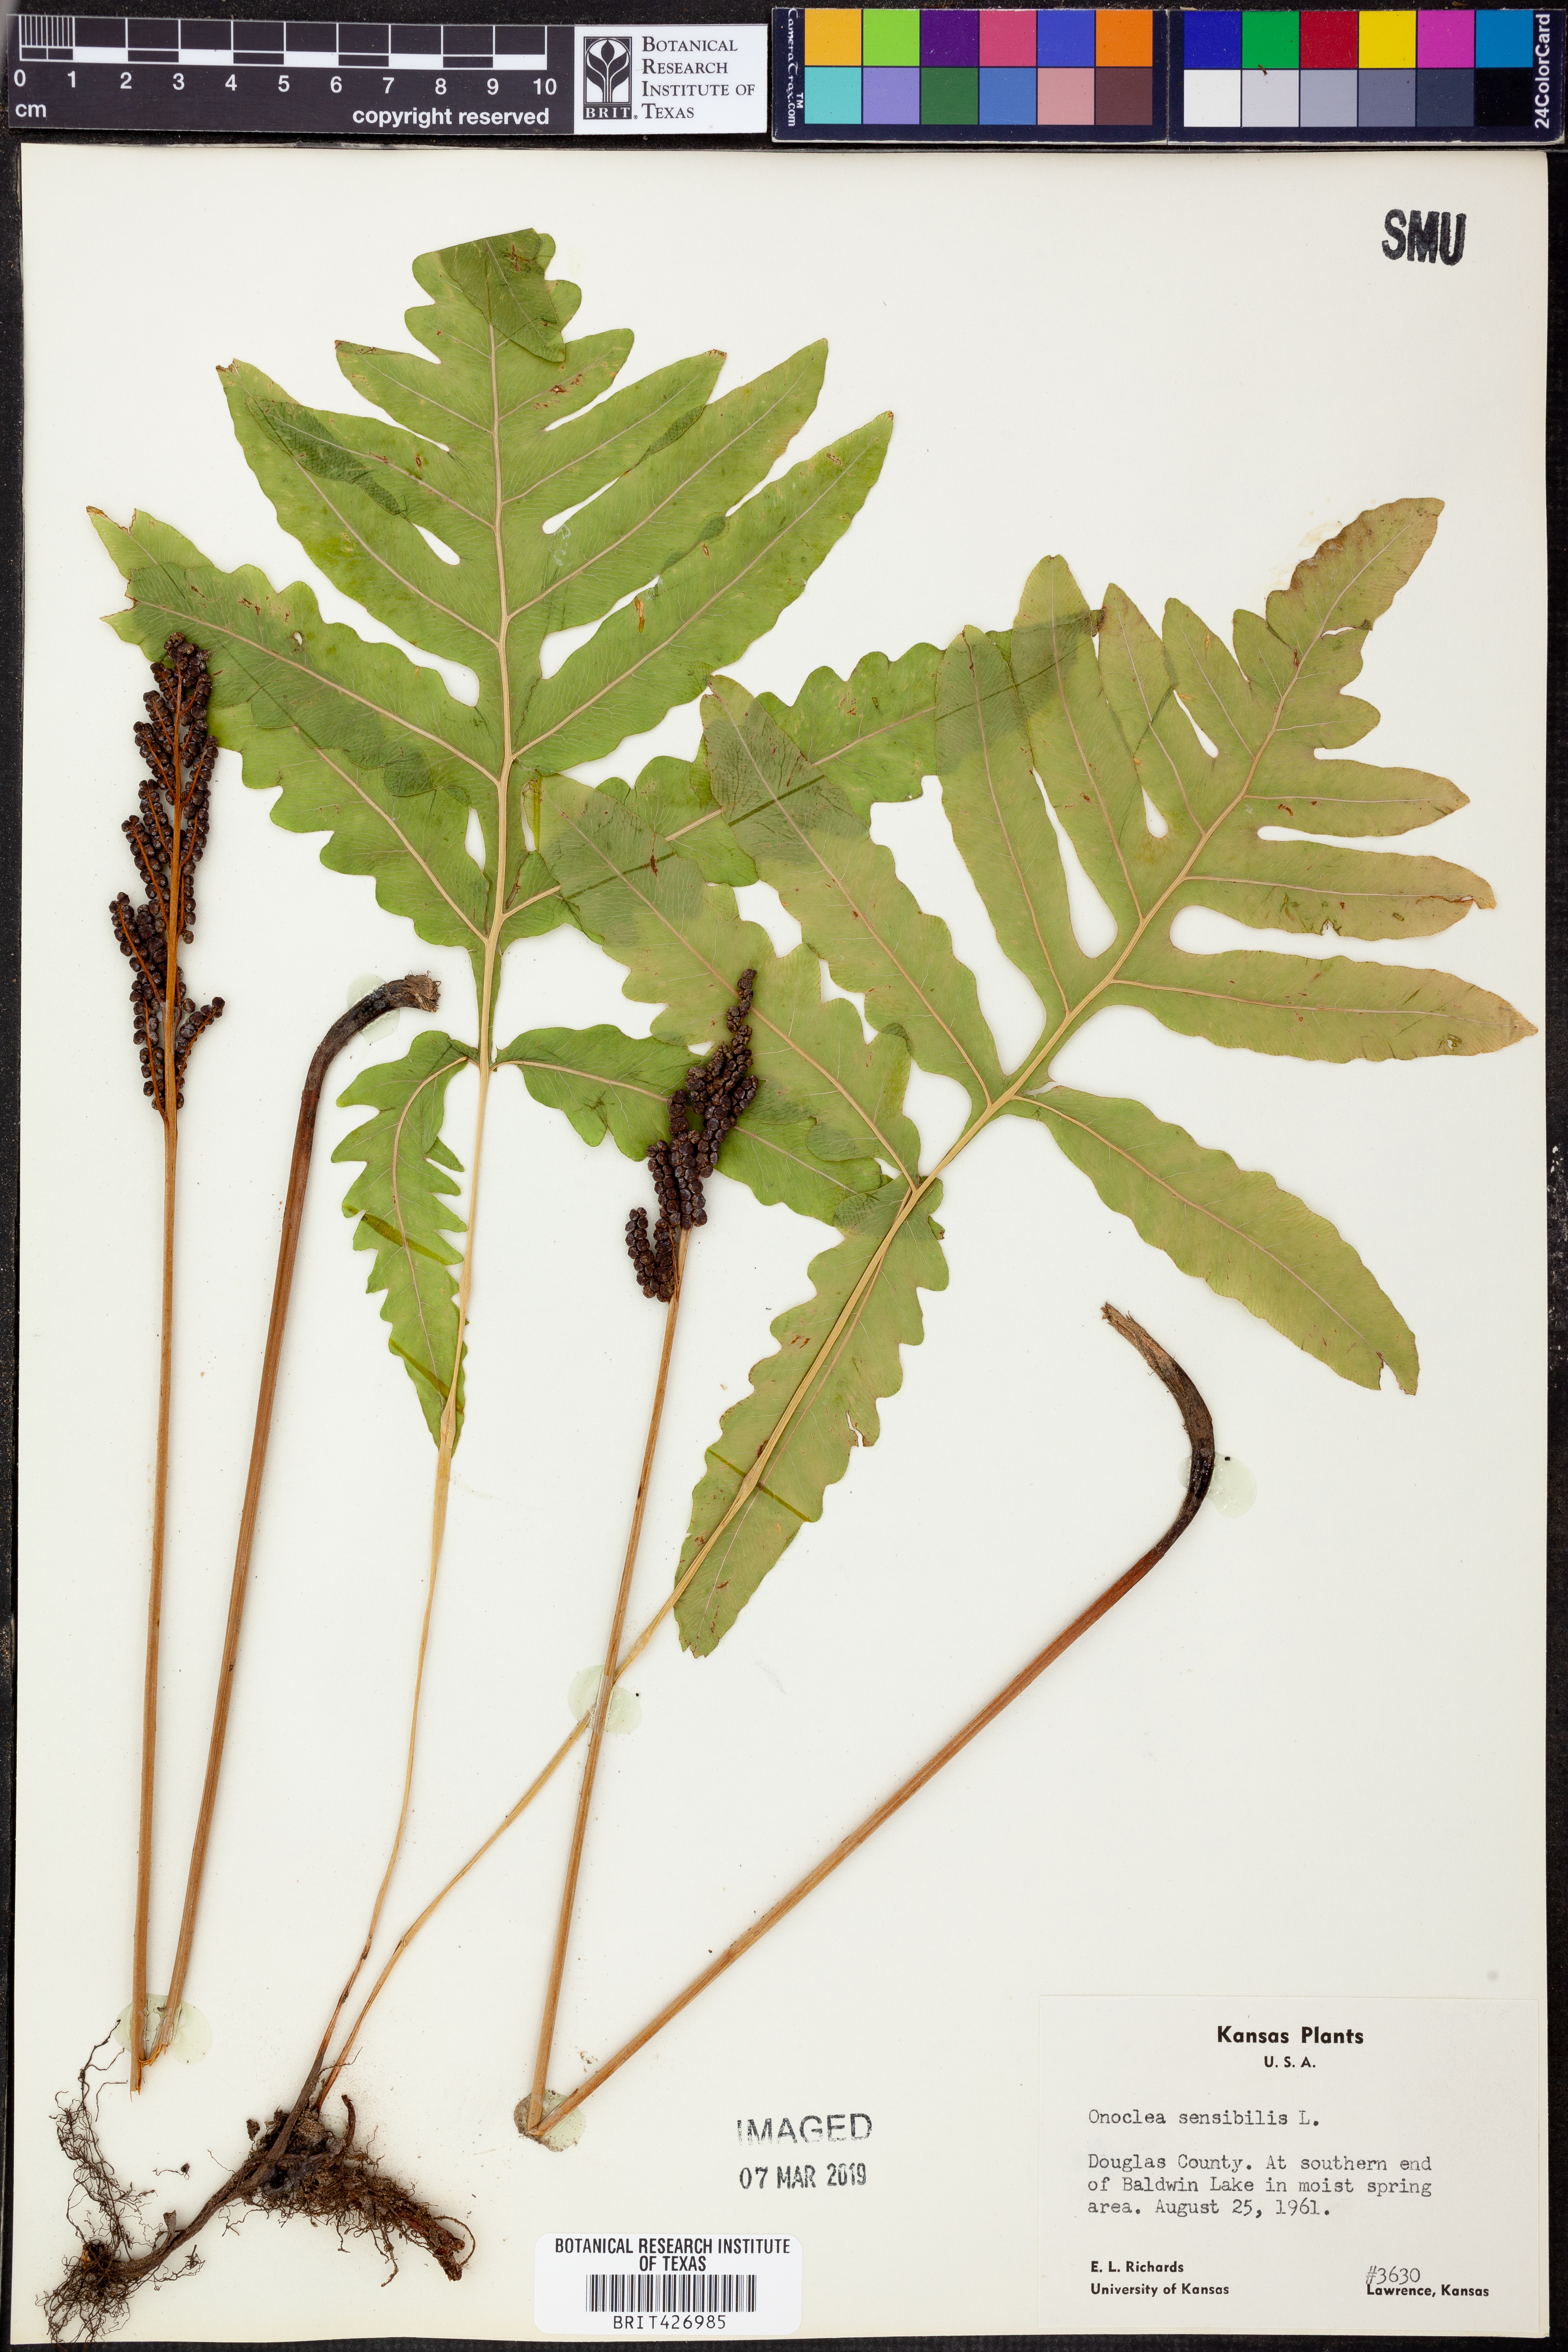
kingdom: Plantae
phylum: Tracheophyta
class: Polypodiopsida
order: Polypodiales
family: Onocleaceae
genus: Onoclea
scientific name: Onoclea sensibilis
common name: Sensitive fern
